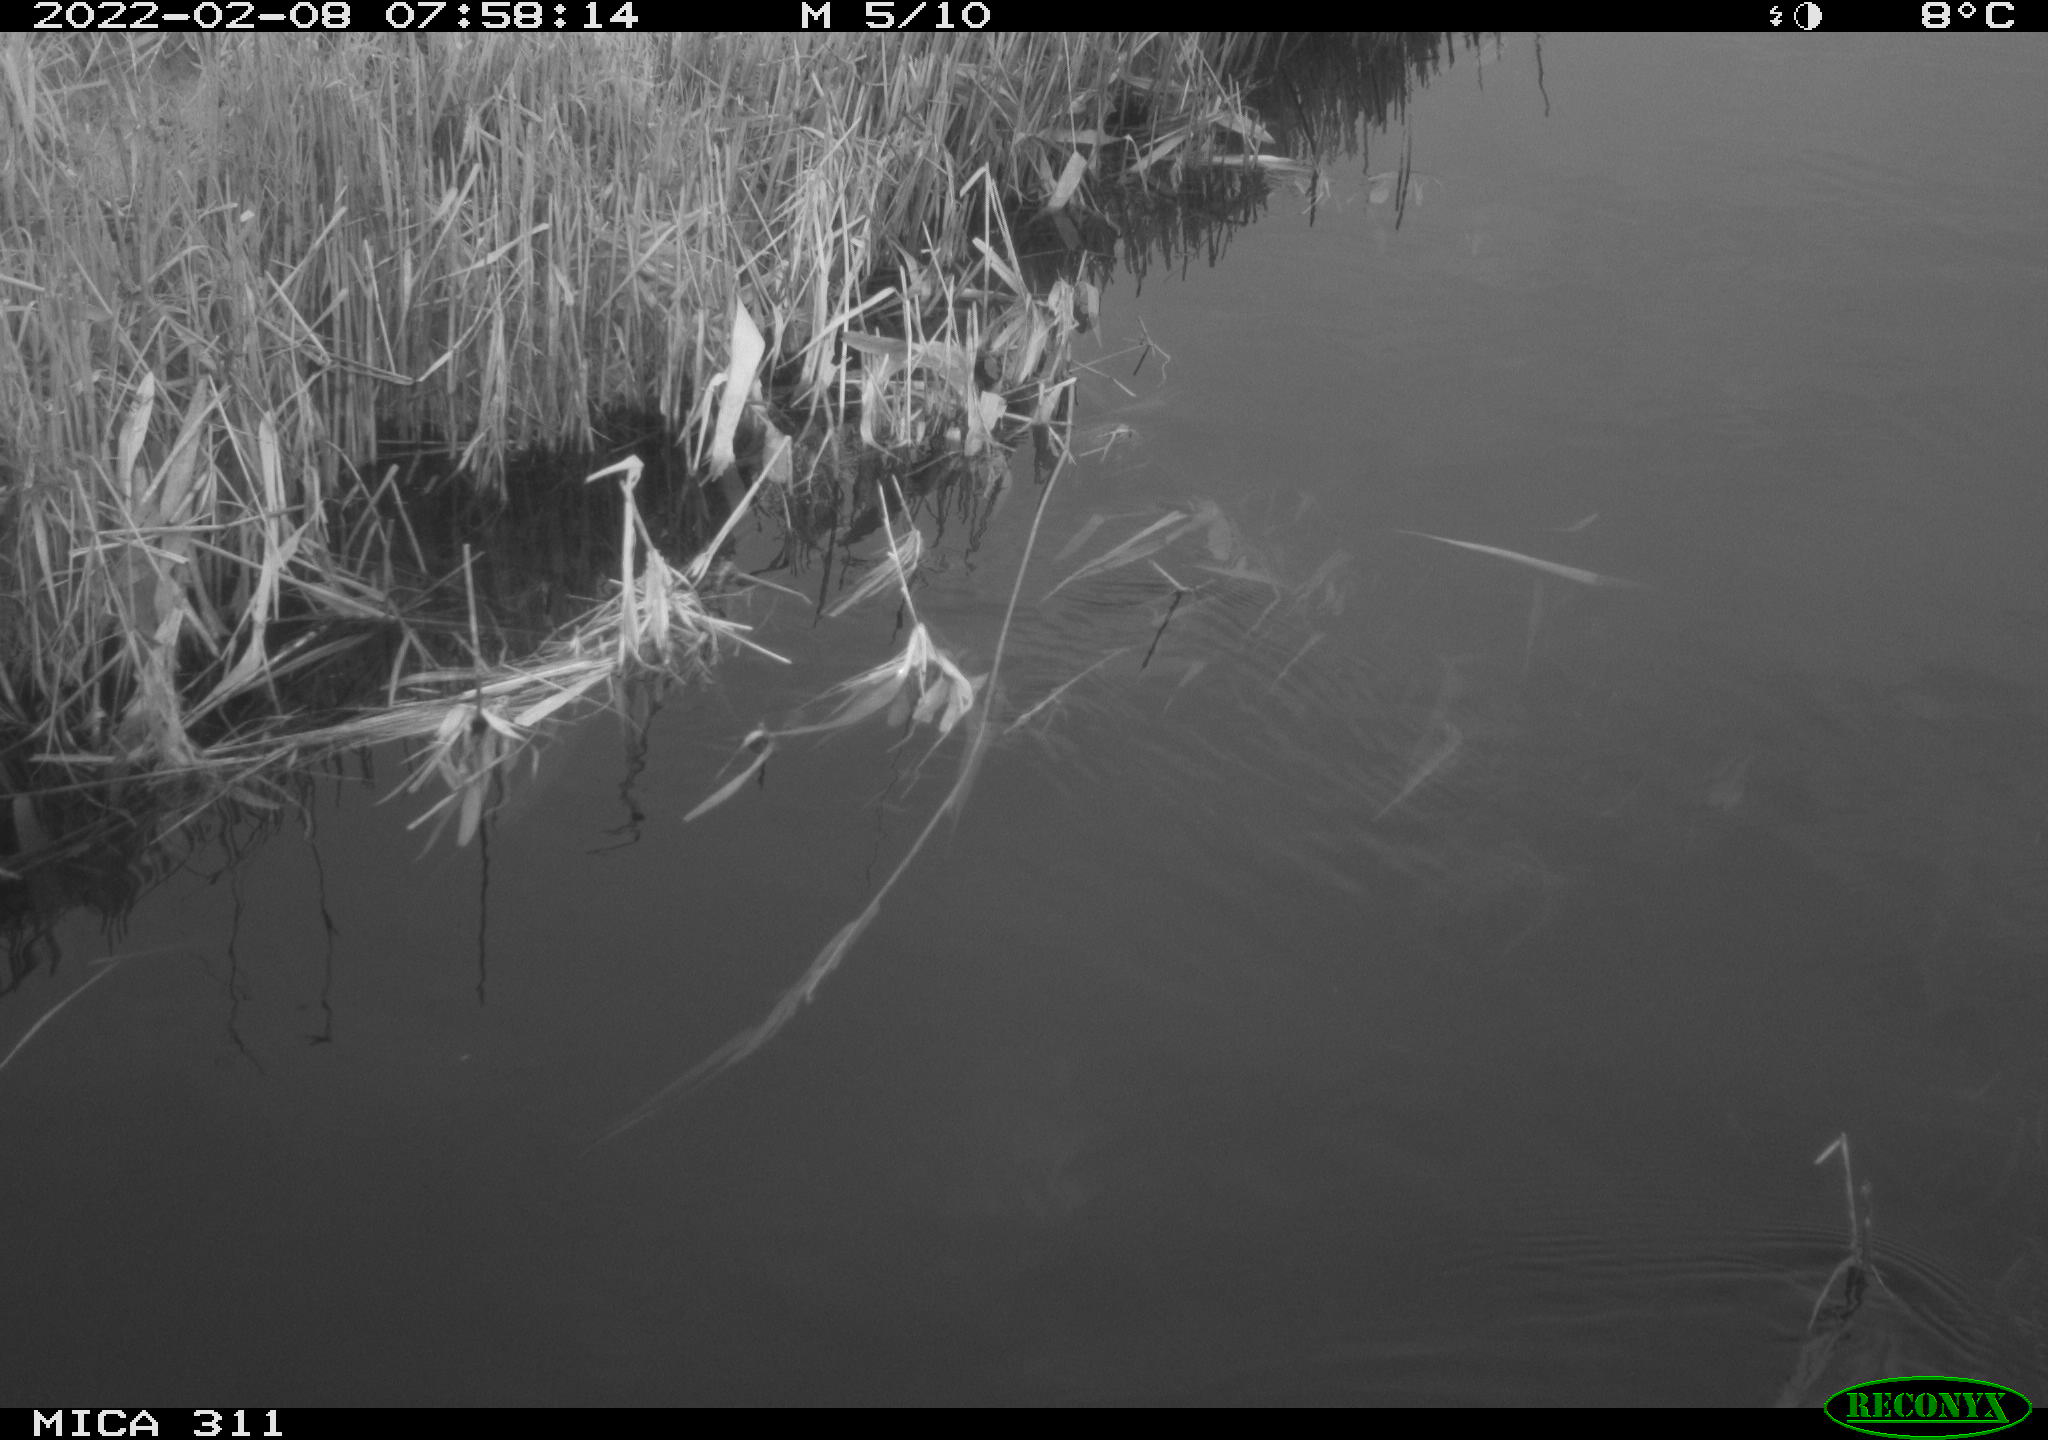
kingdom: Animalia
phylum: Chordata
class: Aves
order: Gruiformes
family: Rallidae
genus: Gallinula
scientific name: Gallinula chloropus
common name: Common moorhen
